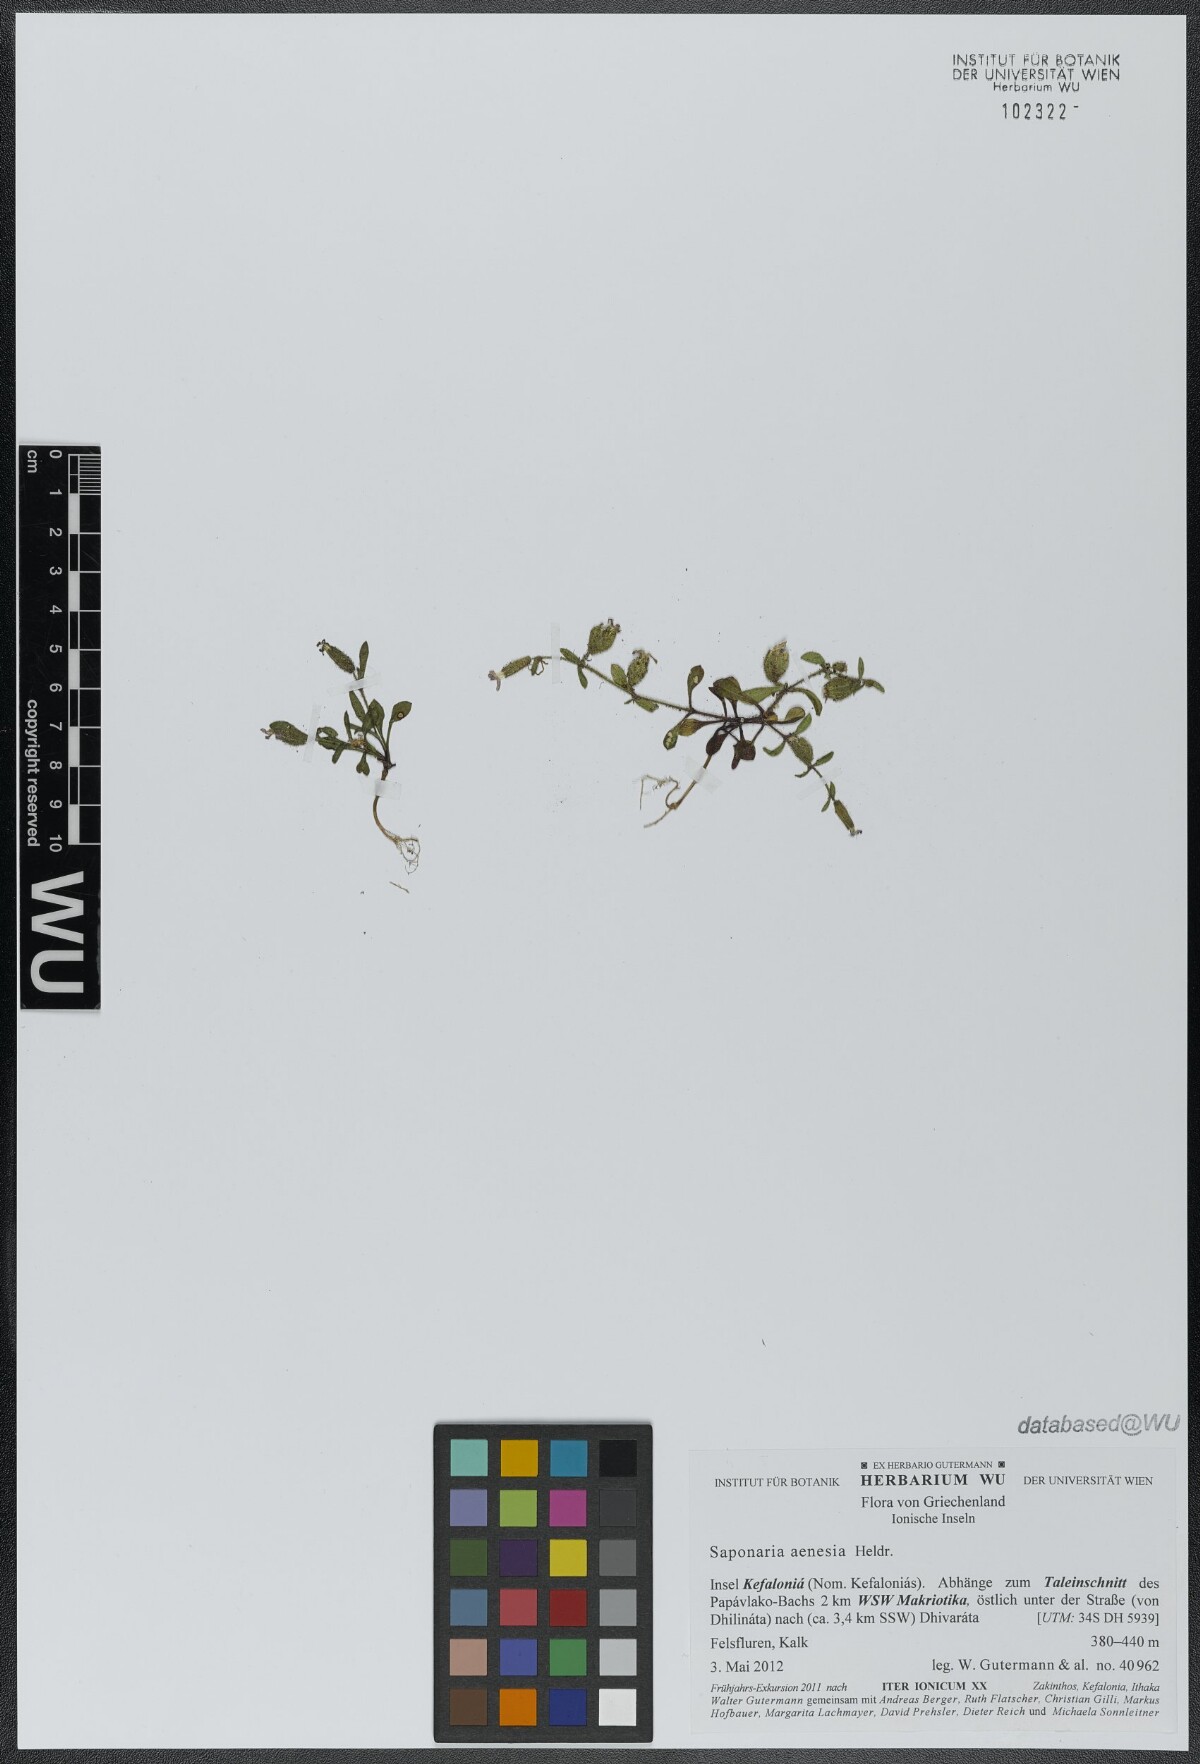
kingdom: Plantae
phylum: Tracheophyta
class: Magnoliopsida
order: Caryophyllales
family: Caryophyllaceae
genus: Saponaria
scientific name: Saponaria aenesia
